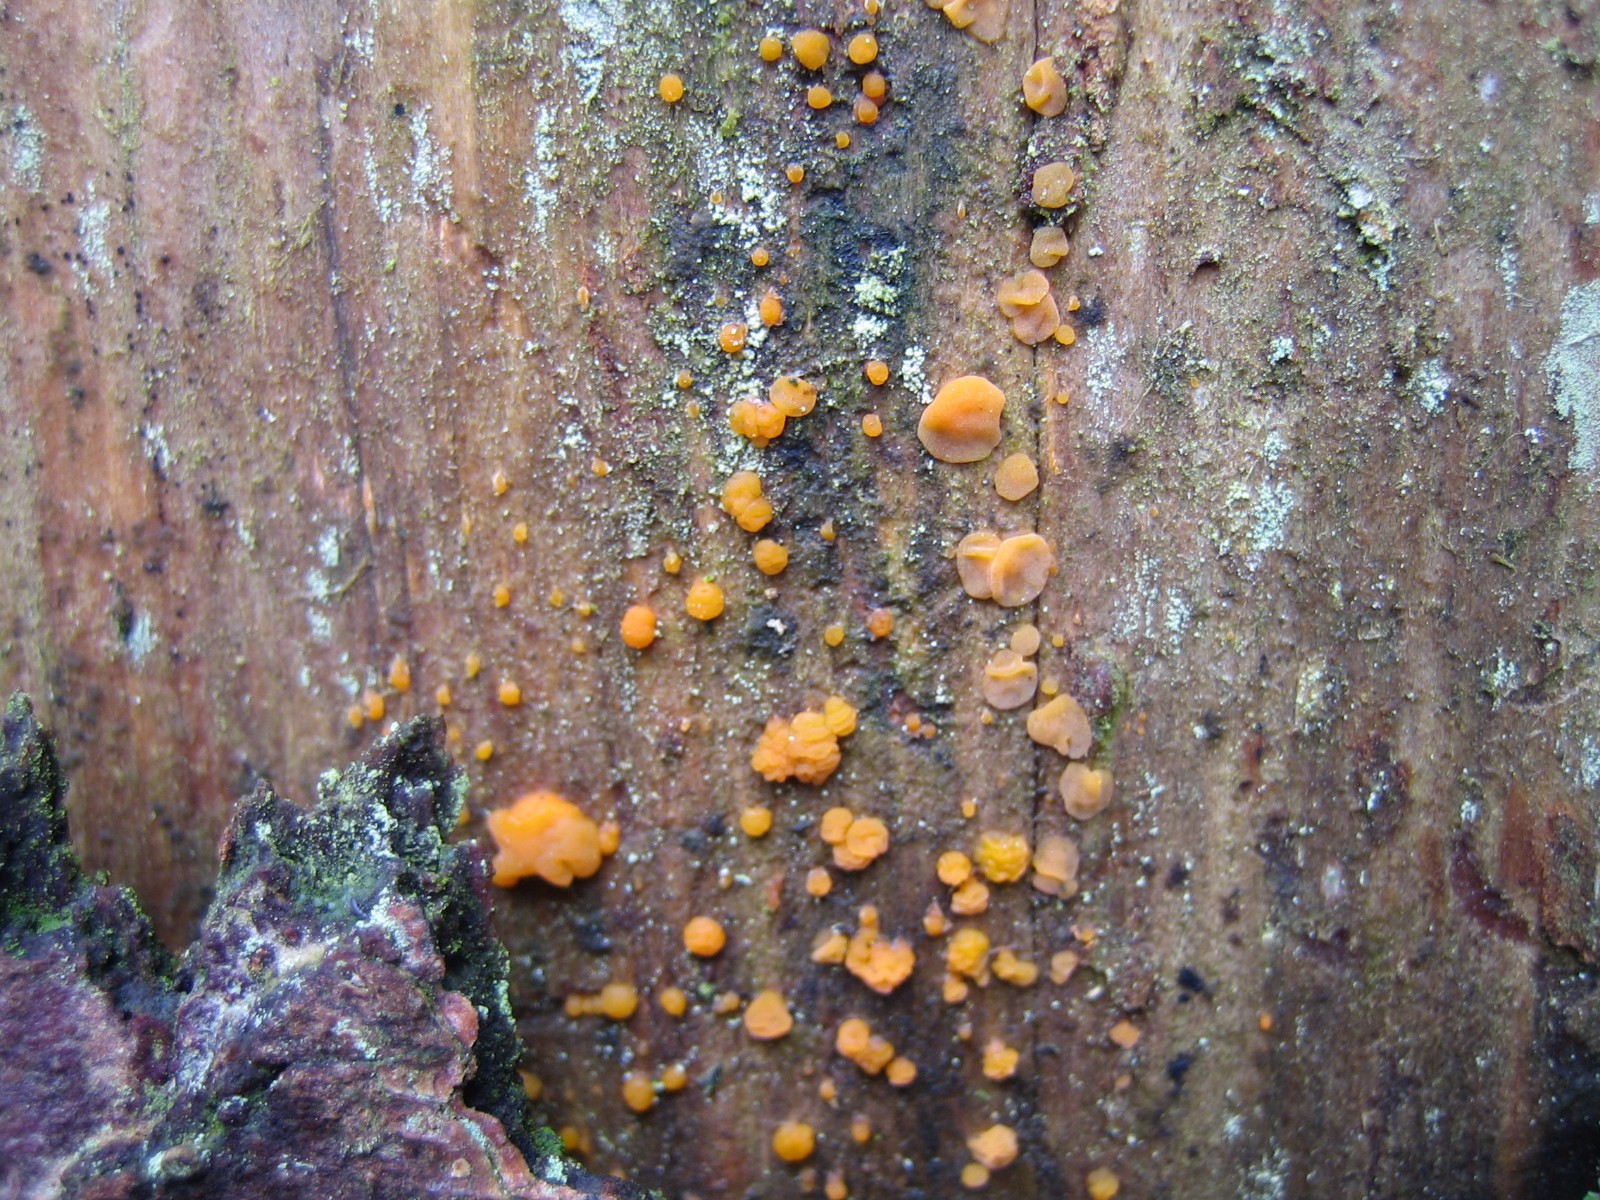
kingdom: Fungi
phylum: Basidiomycota
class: Dacrymycetes
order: Dacrymycetales
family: Dacrymycetaceae
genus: Dacrymyces
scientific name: Dacrymyces stillatus
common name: almindelig tåresvamp
